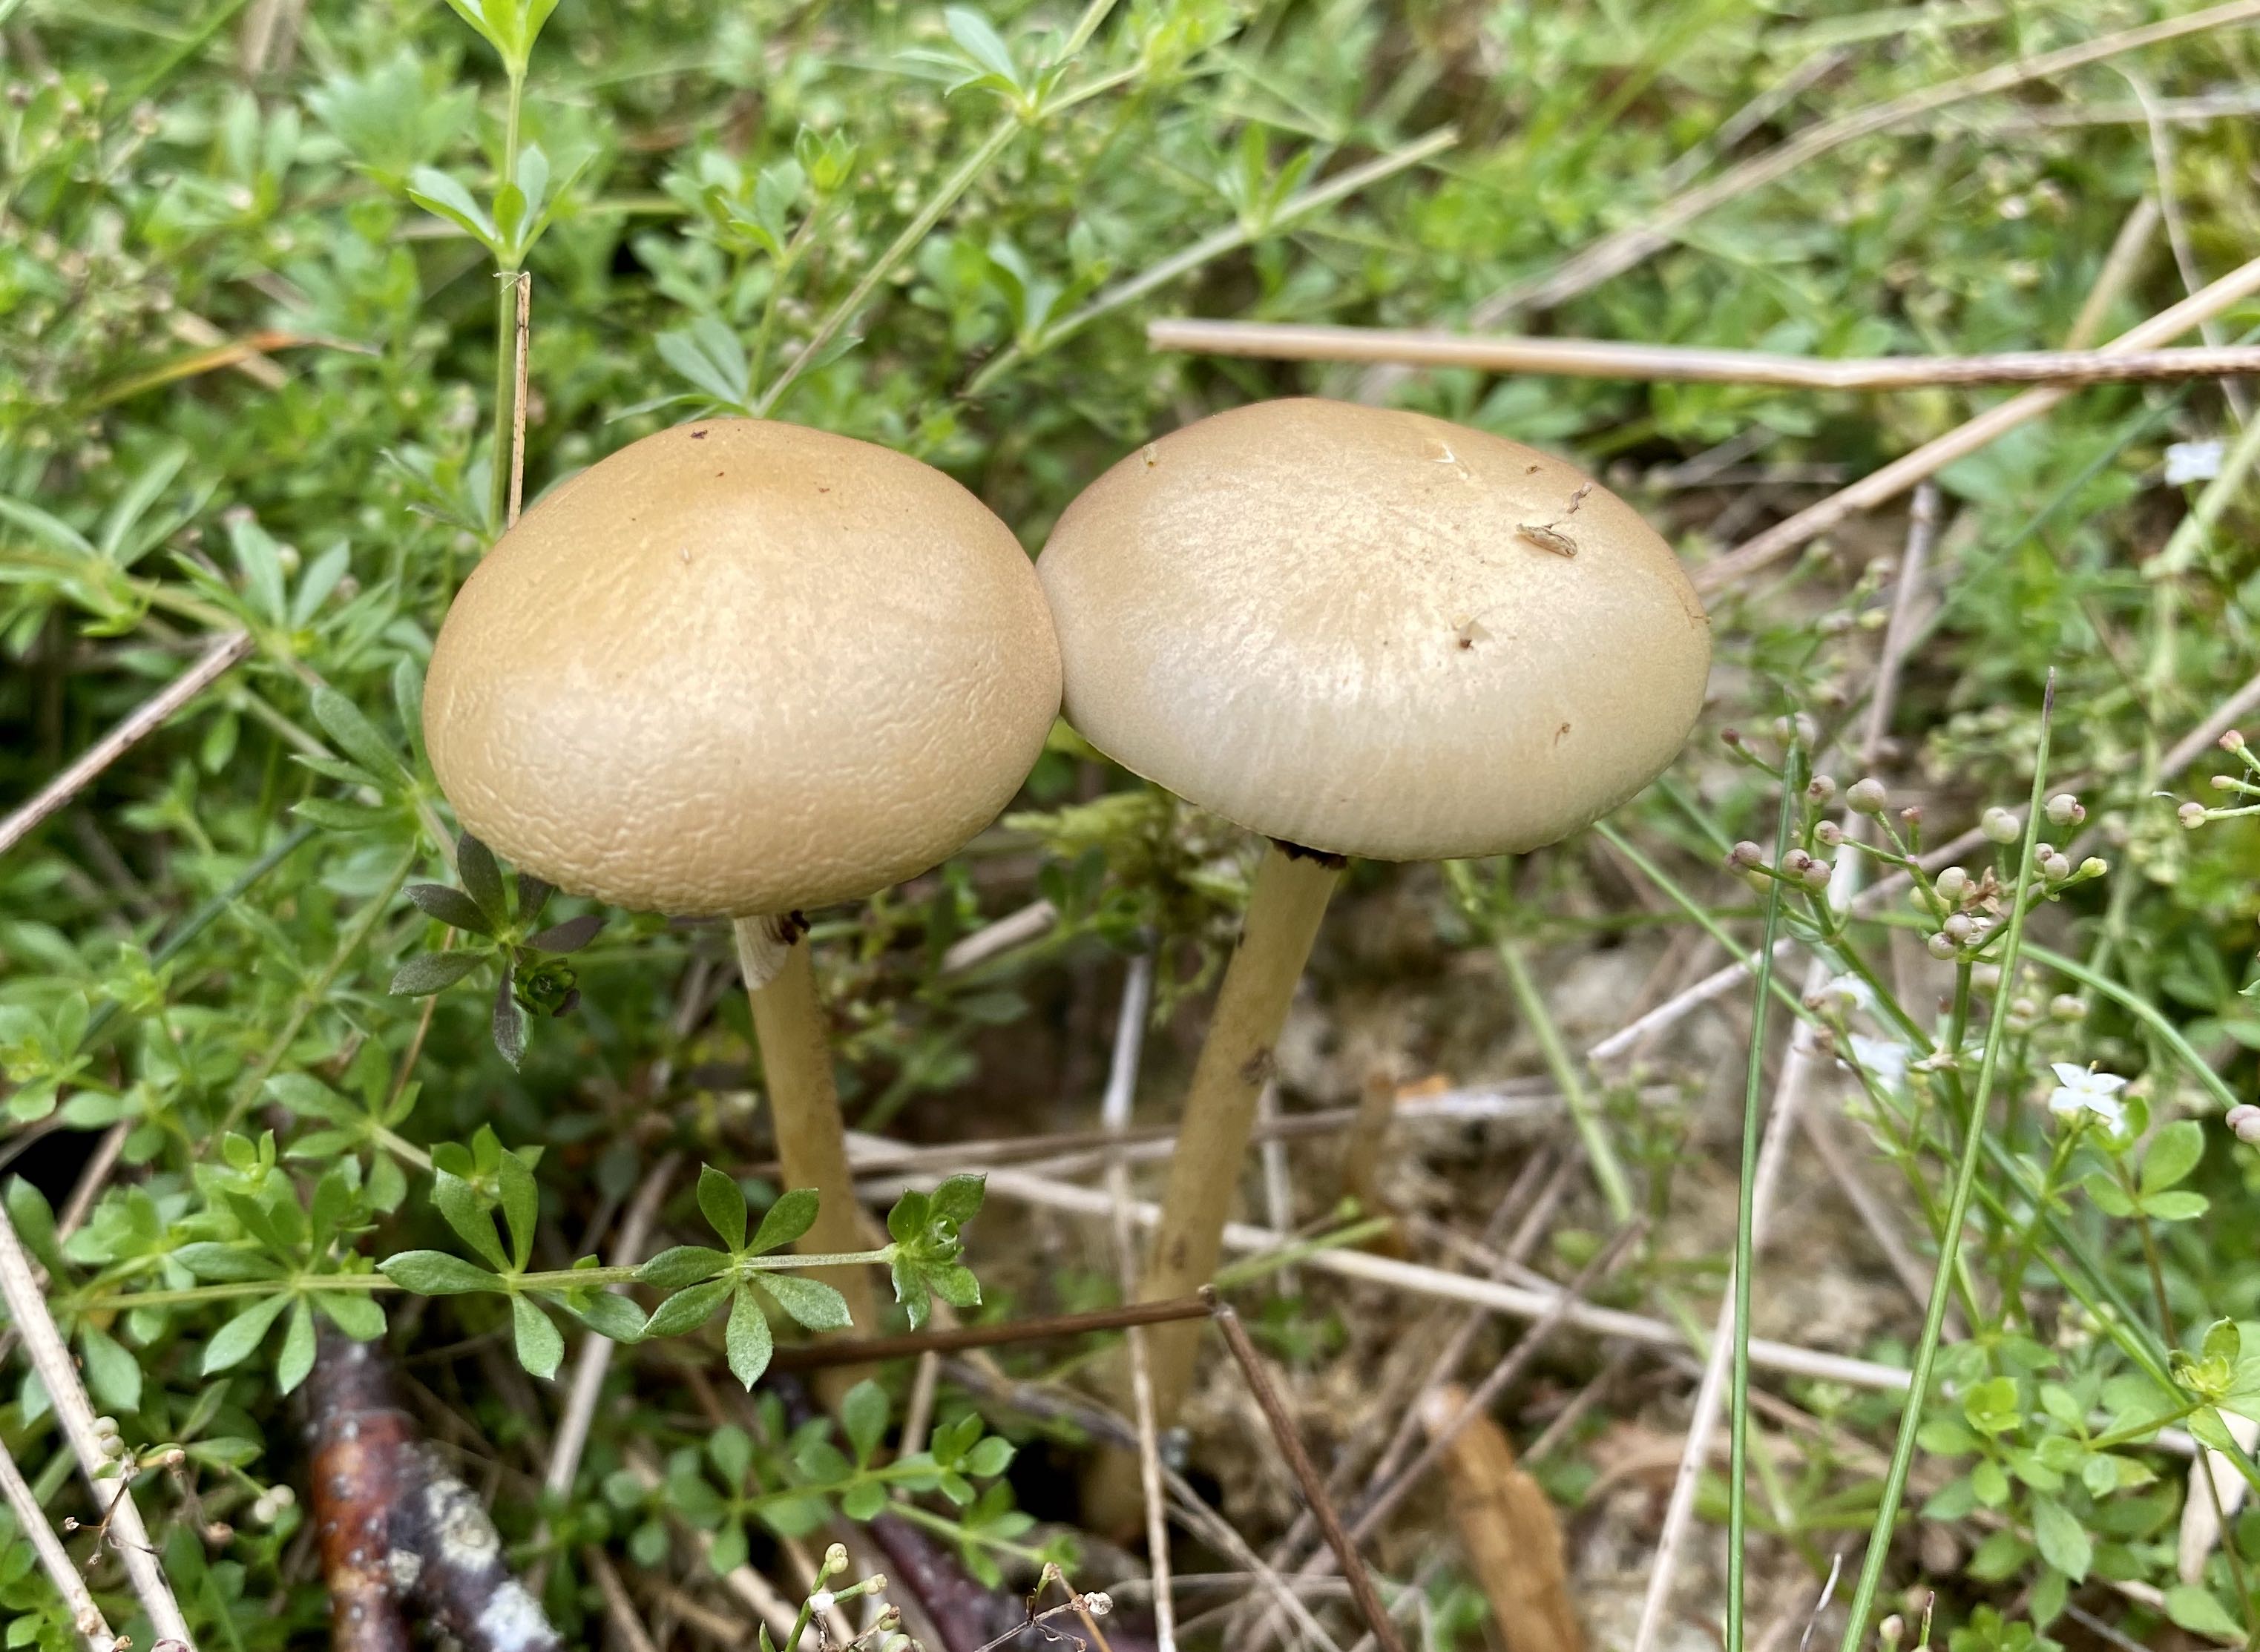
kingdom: Fungi
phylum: Basidiomycota
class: Agaricomycetes
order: Agaricales
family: Strophariaceae
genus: Protostropharia
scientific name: Protostropharia
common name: bredblad
